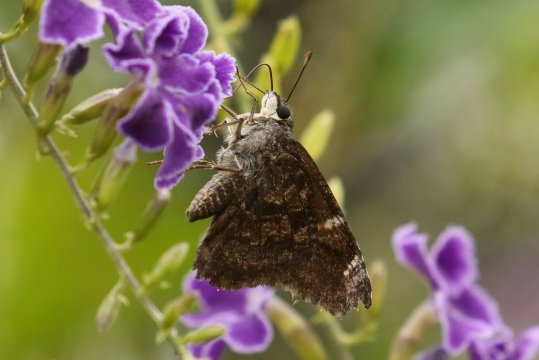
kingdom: Animalia
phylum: Arthropoda
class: Insecta
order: Lepidoptera
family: Hesperiidae
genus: Caicella
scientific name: Caicella calchas
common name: Mimosa Skipper
